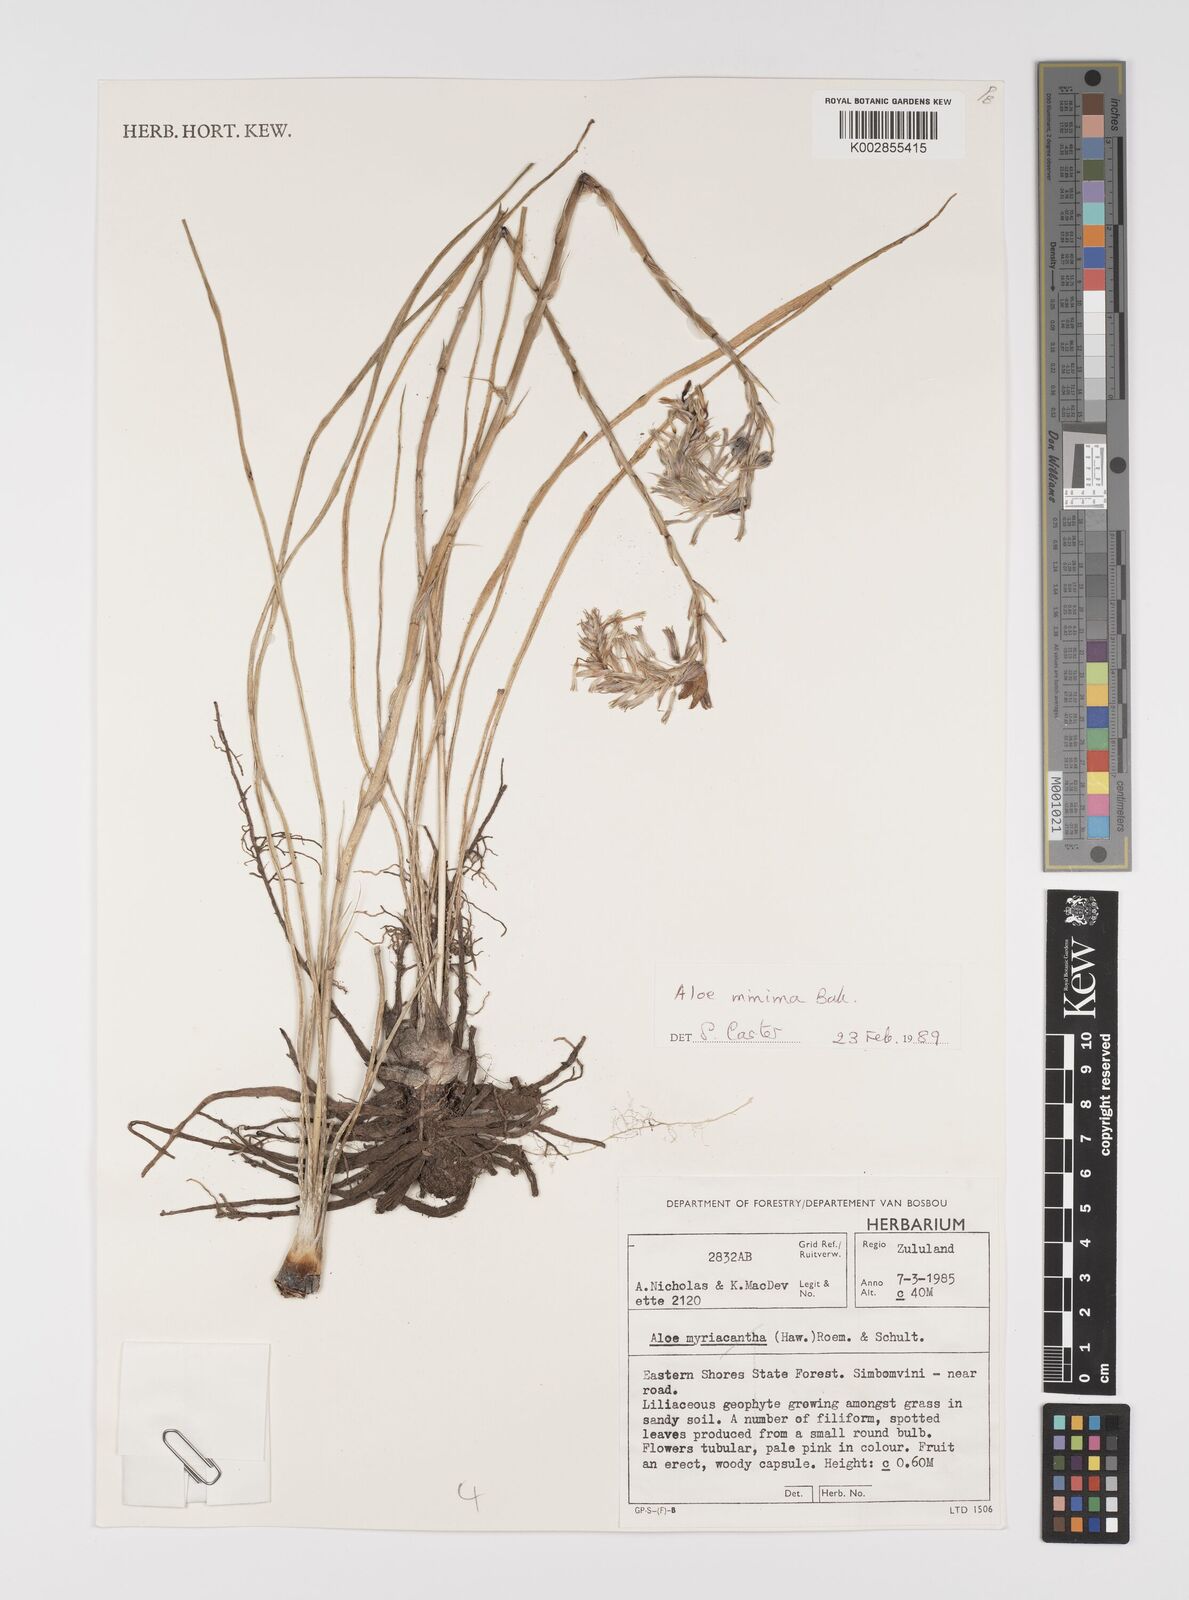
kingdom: Plantae
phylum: Tracheophyta
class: Liliopsida
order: Asparagales
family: Asphodelaceae
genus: Aloe
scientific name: Aloe minima
